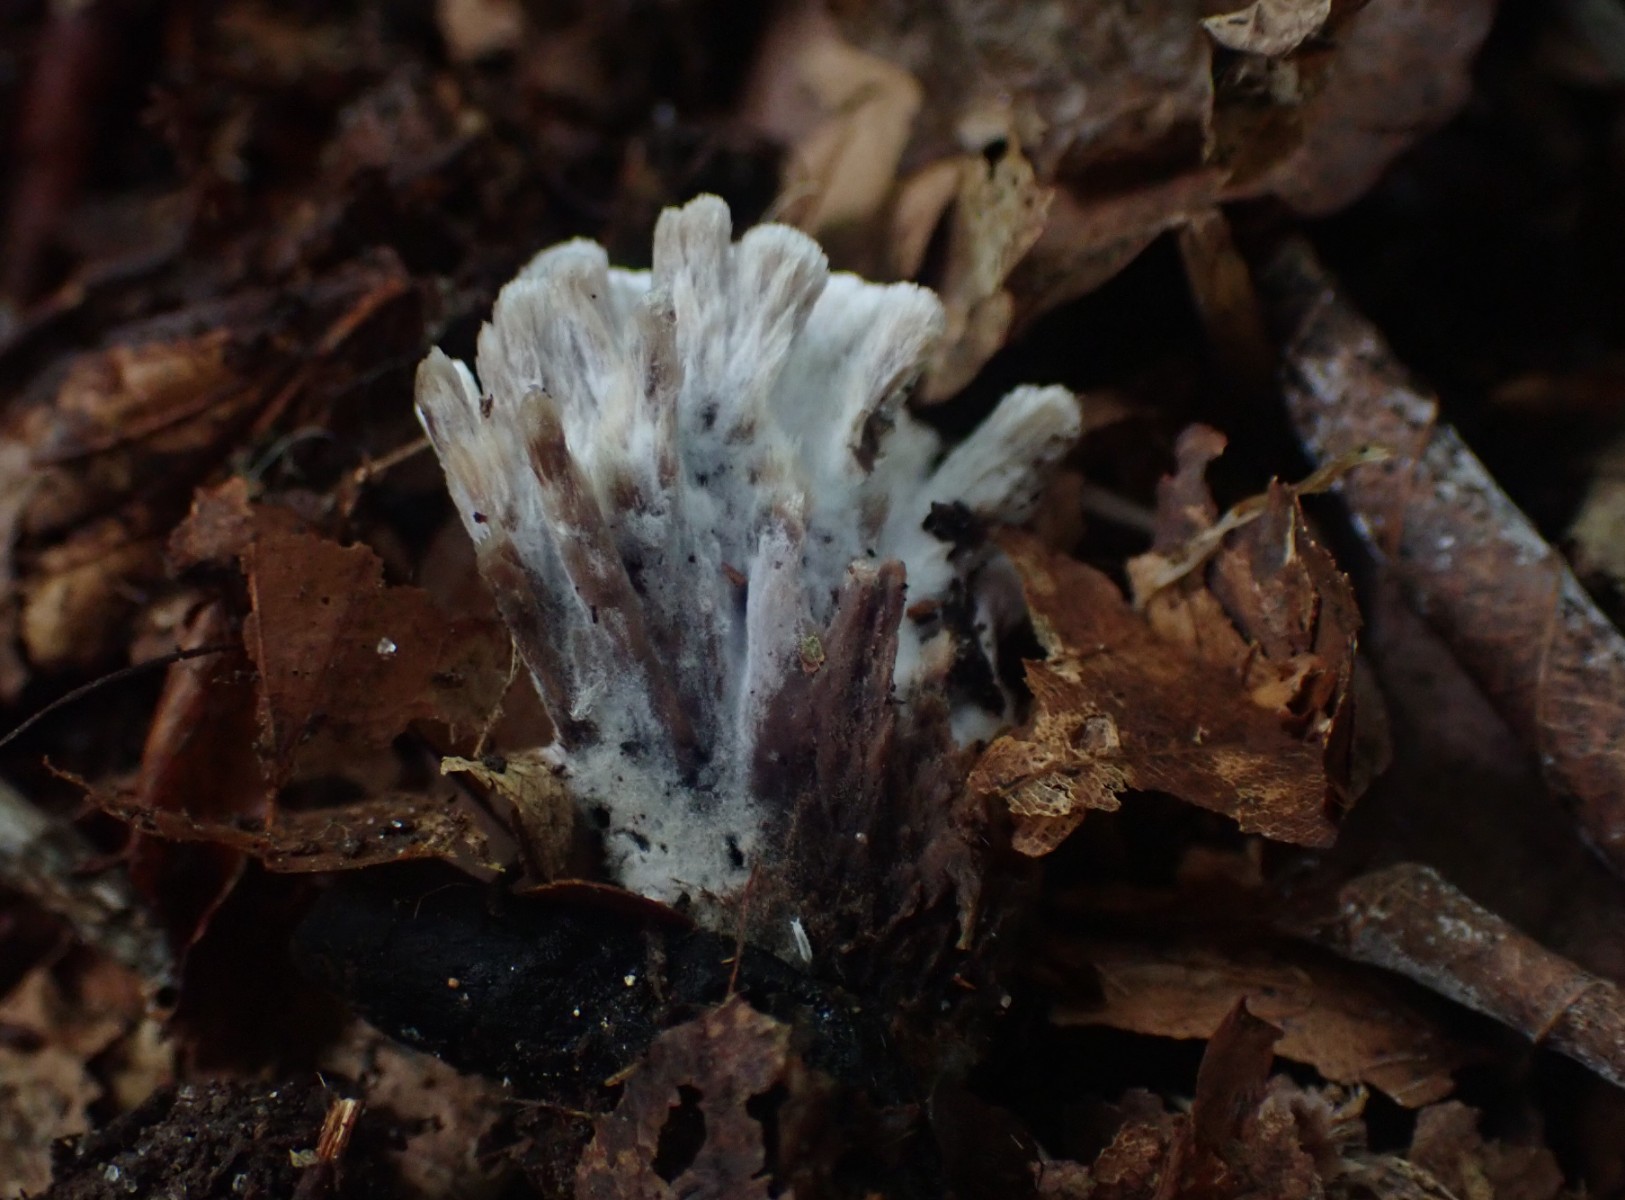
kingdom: Fungi
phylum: Basidiomycota
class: Agaricomycetes
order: Thelephorales
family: Thelephoraceae
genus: Thelephora
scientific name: Thelephora anthocephala
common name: busk-frynsesvamp
